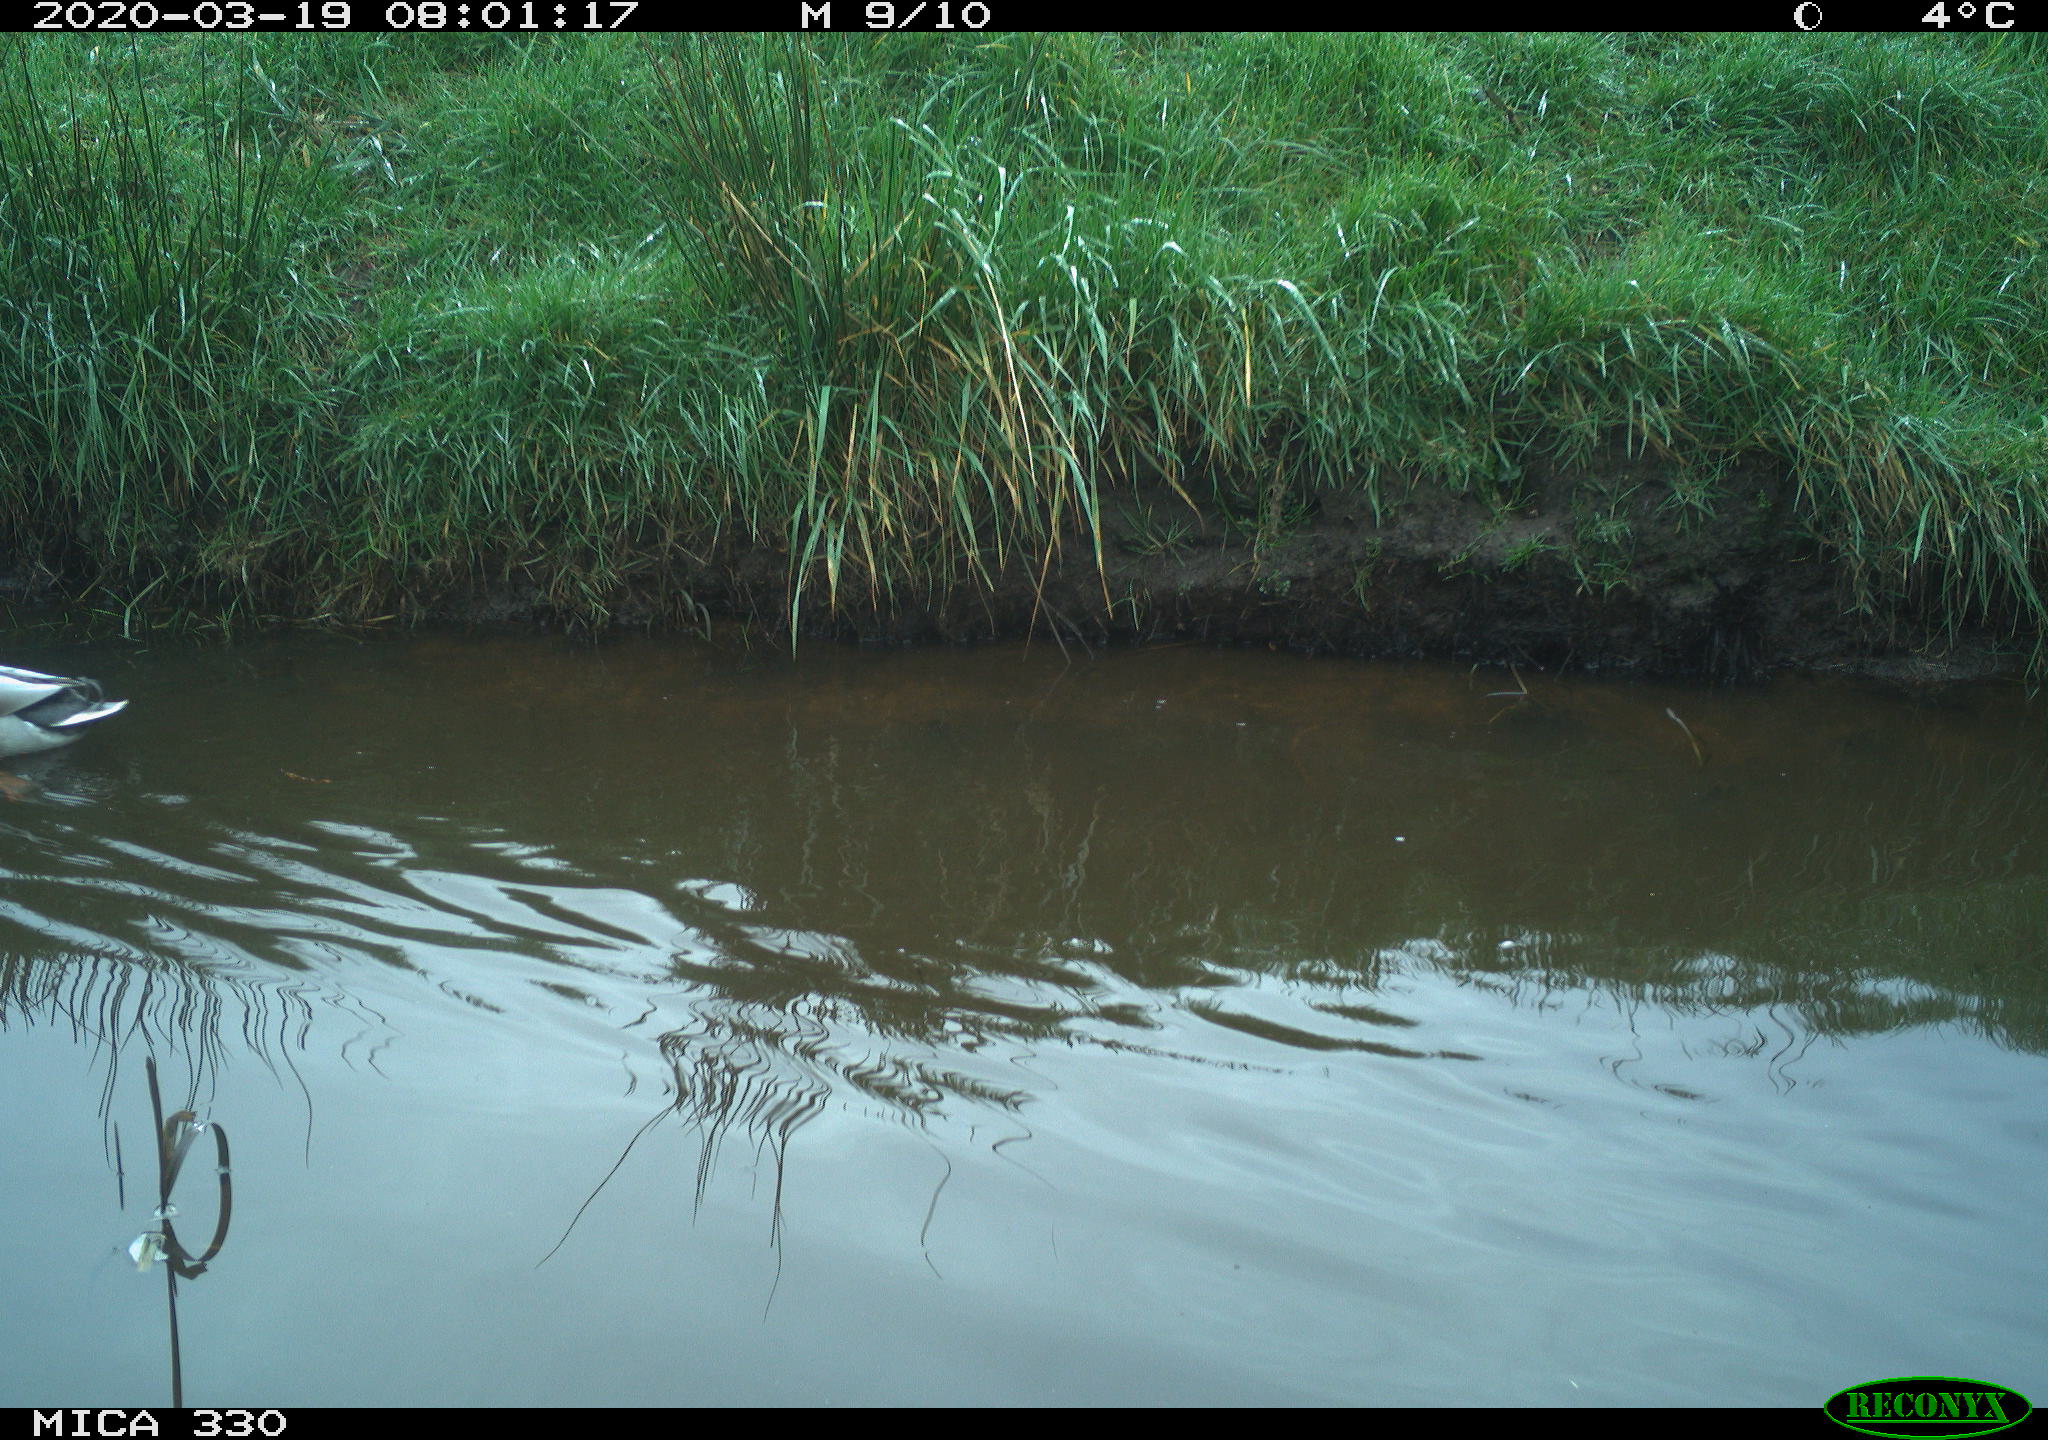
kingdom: Animalia
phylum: Chordata
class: Aves
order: Anseriformes
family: Anatidae
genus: Anas
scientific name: Anas platyrhynchos
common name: Mallard
